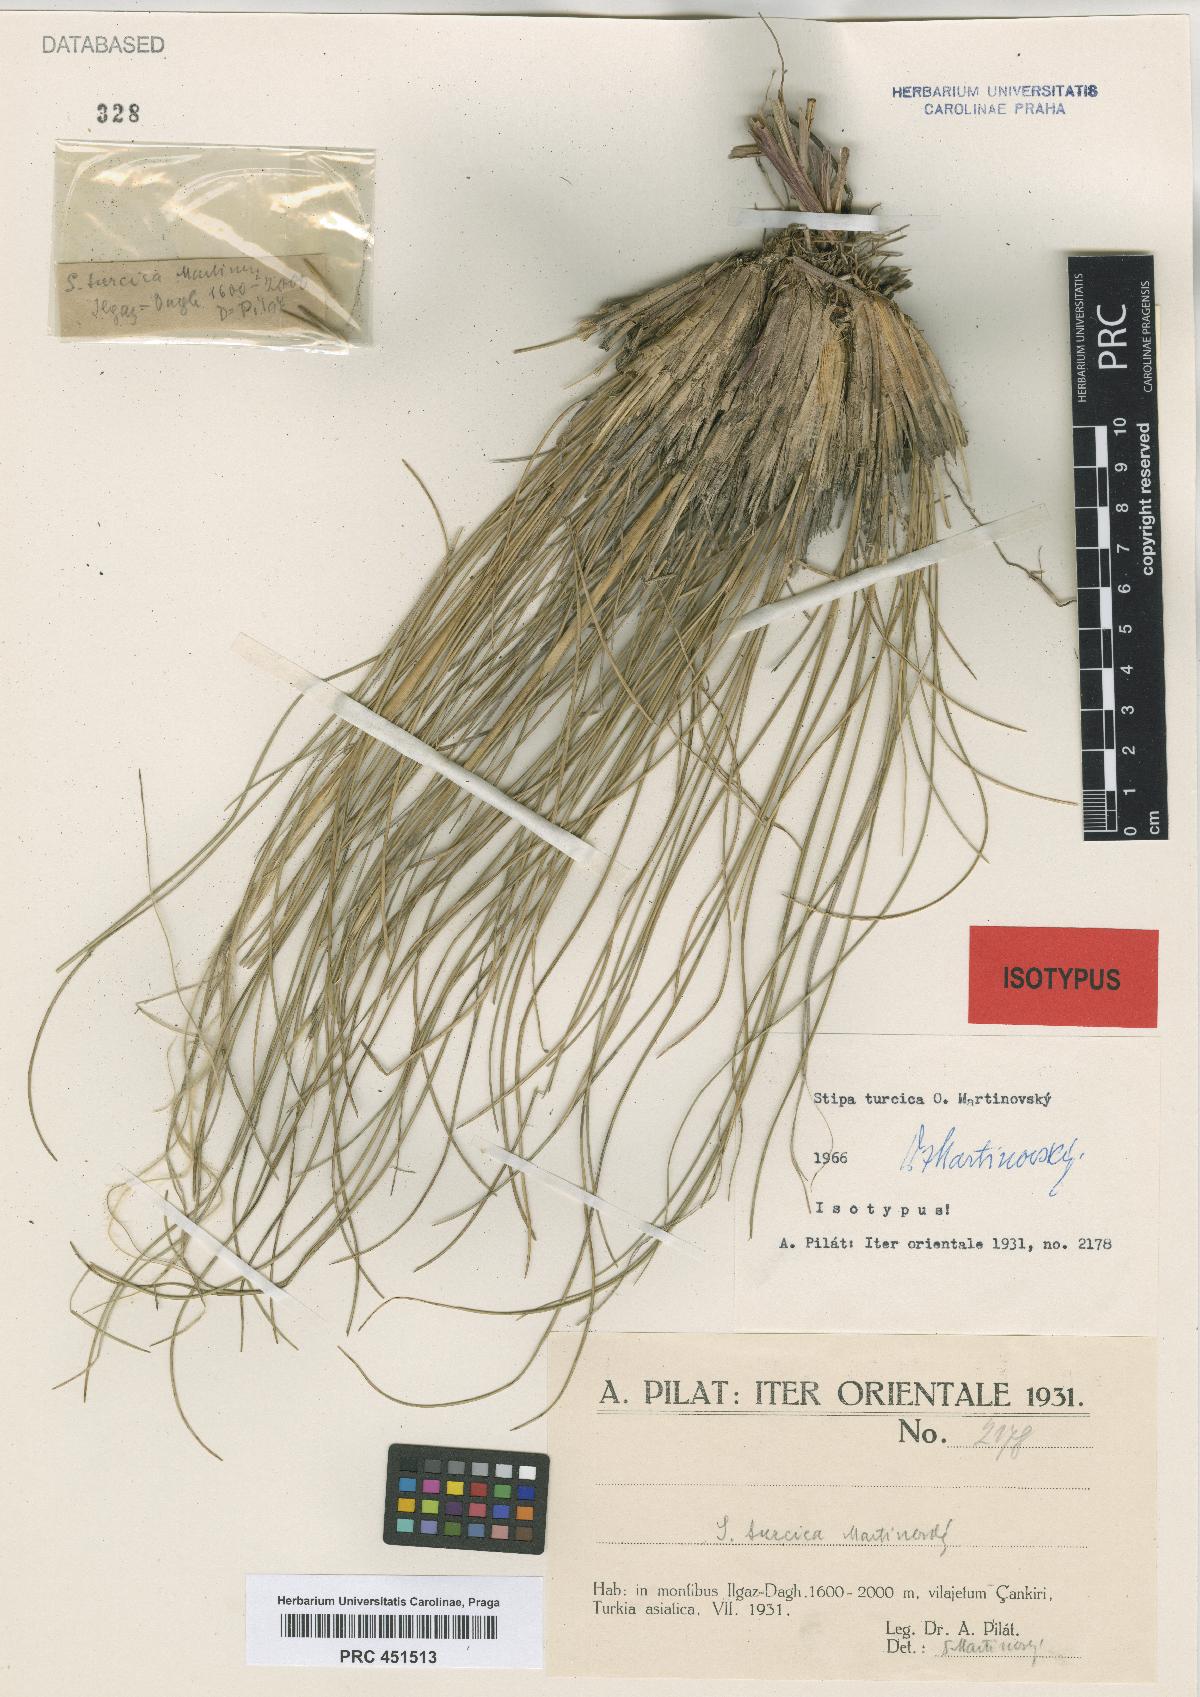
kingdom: Plantae
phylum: Tracheophyta
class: Liliopsida
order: Poales
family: Poaceae
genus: Stipa
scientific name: Stipa pulcherrima
